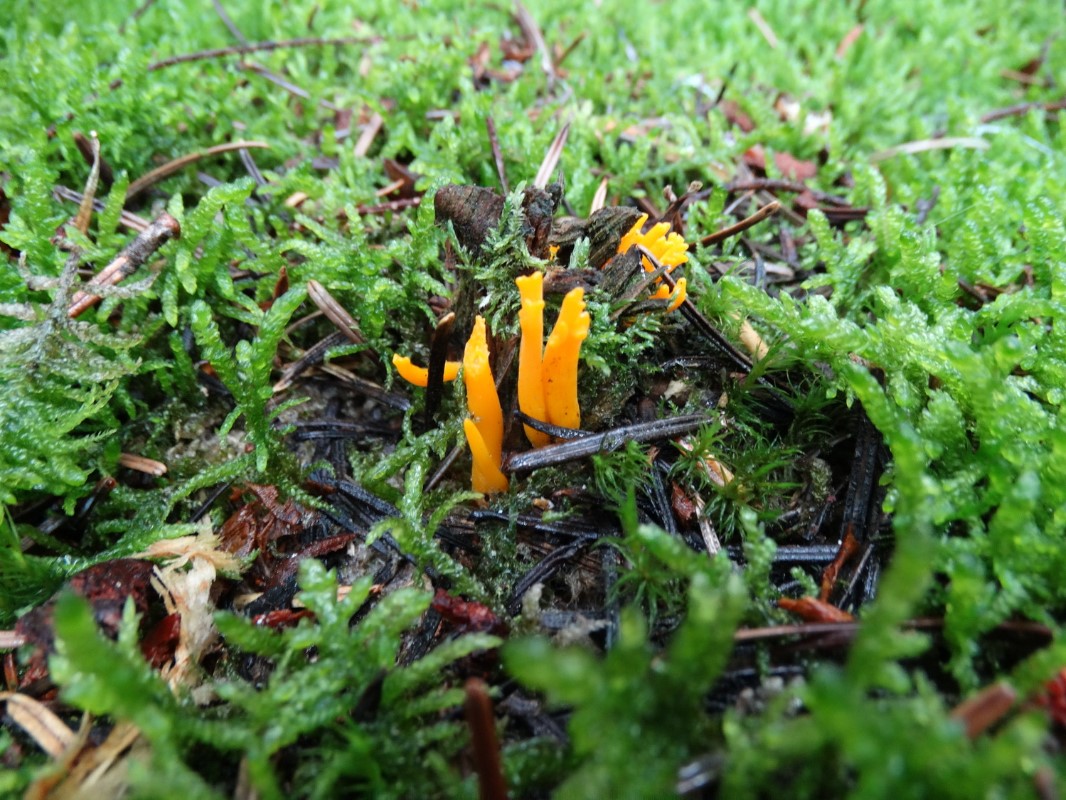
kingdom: Fungi
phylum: Basidiomycota
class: Dacrymycetes
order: Dacrymycetales
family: Dacrymycetaceae
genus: Calocera
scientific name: Calocera viscosa
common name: almindelig guldgaffel
